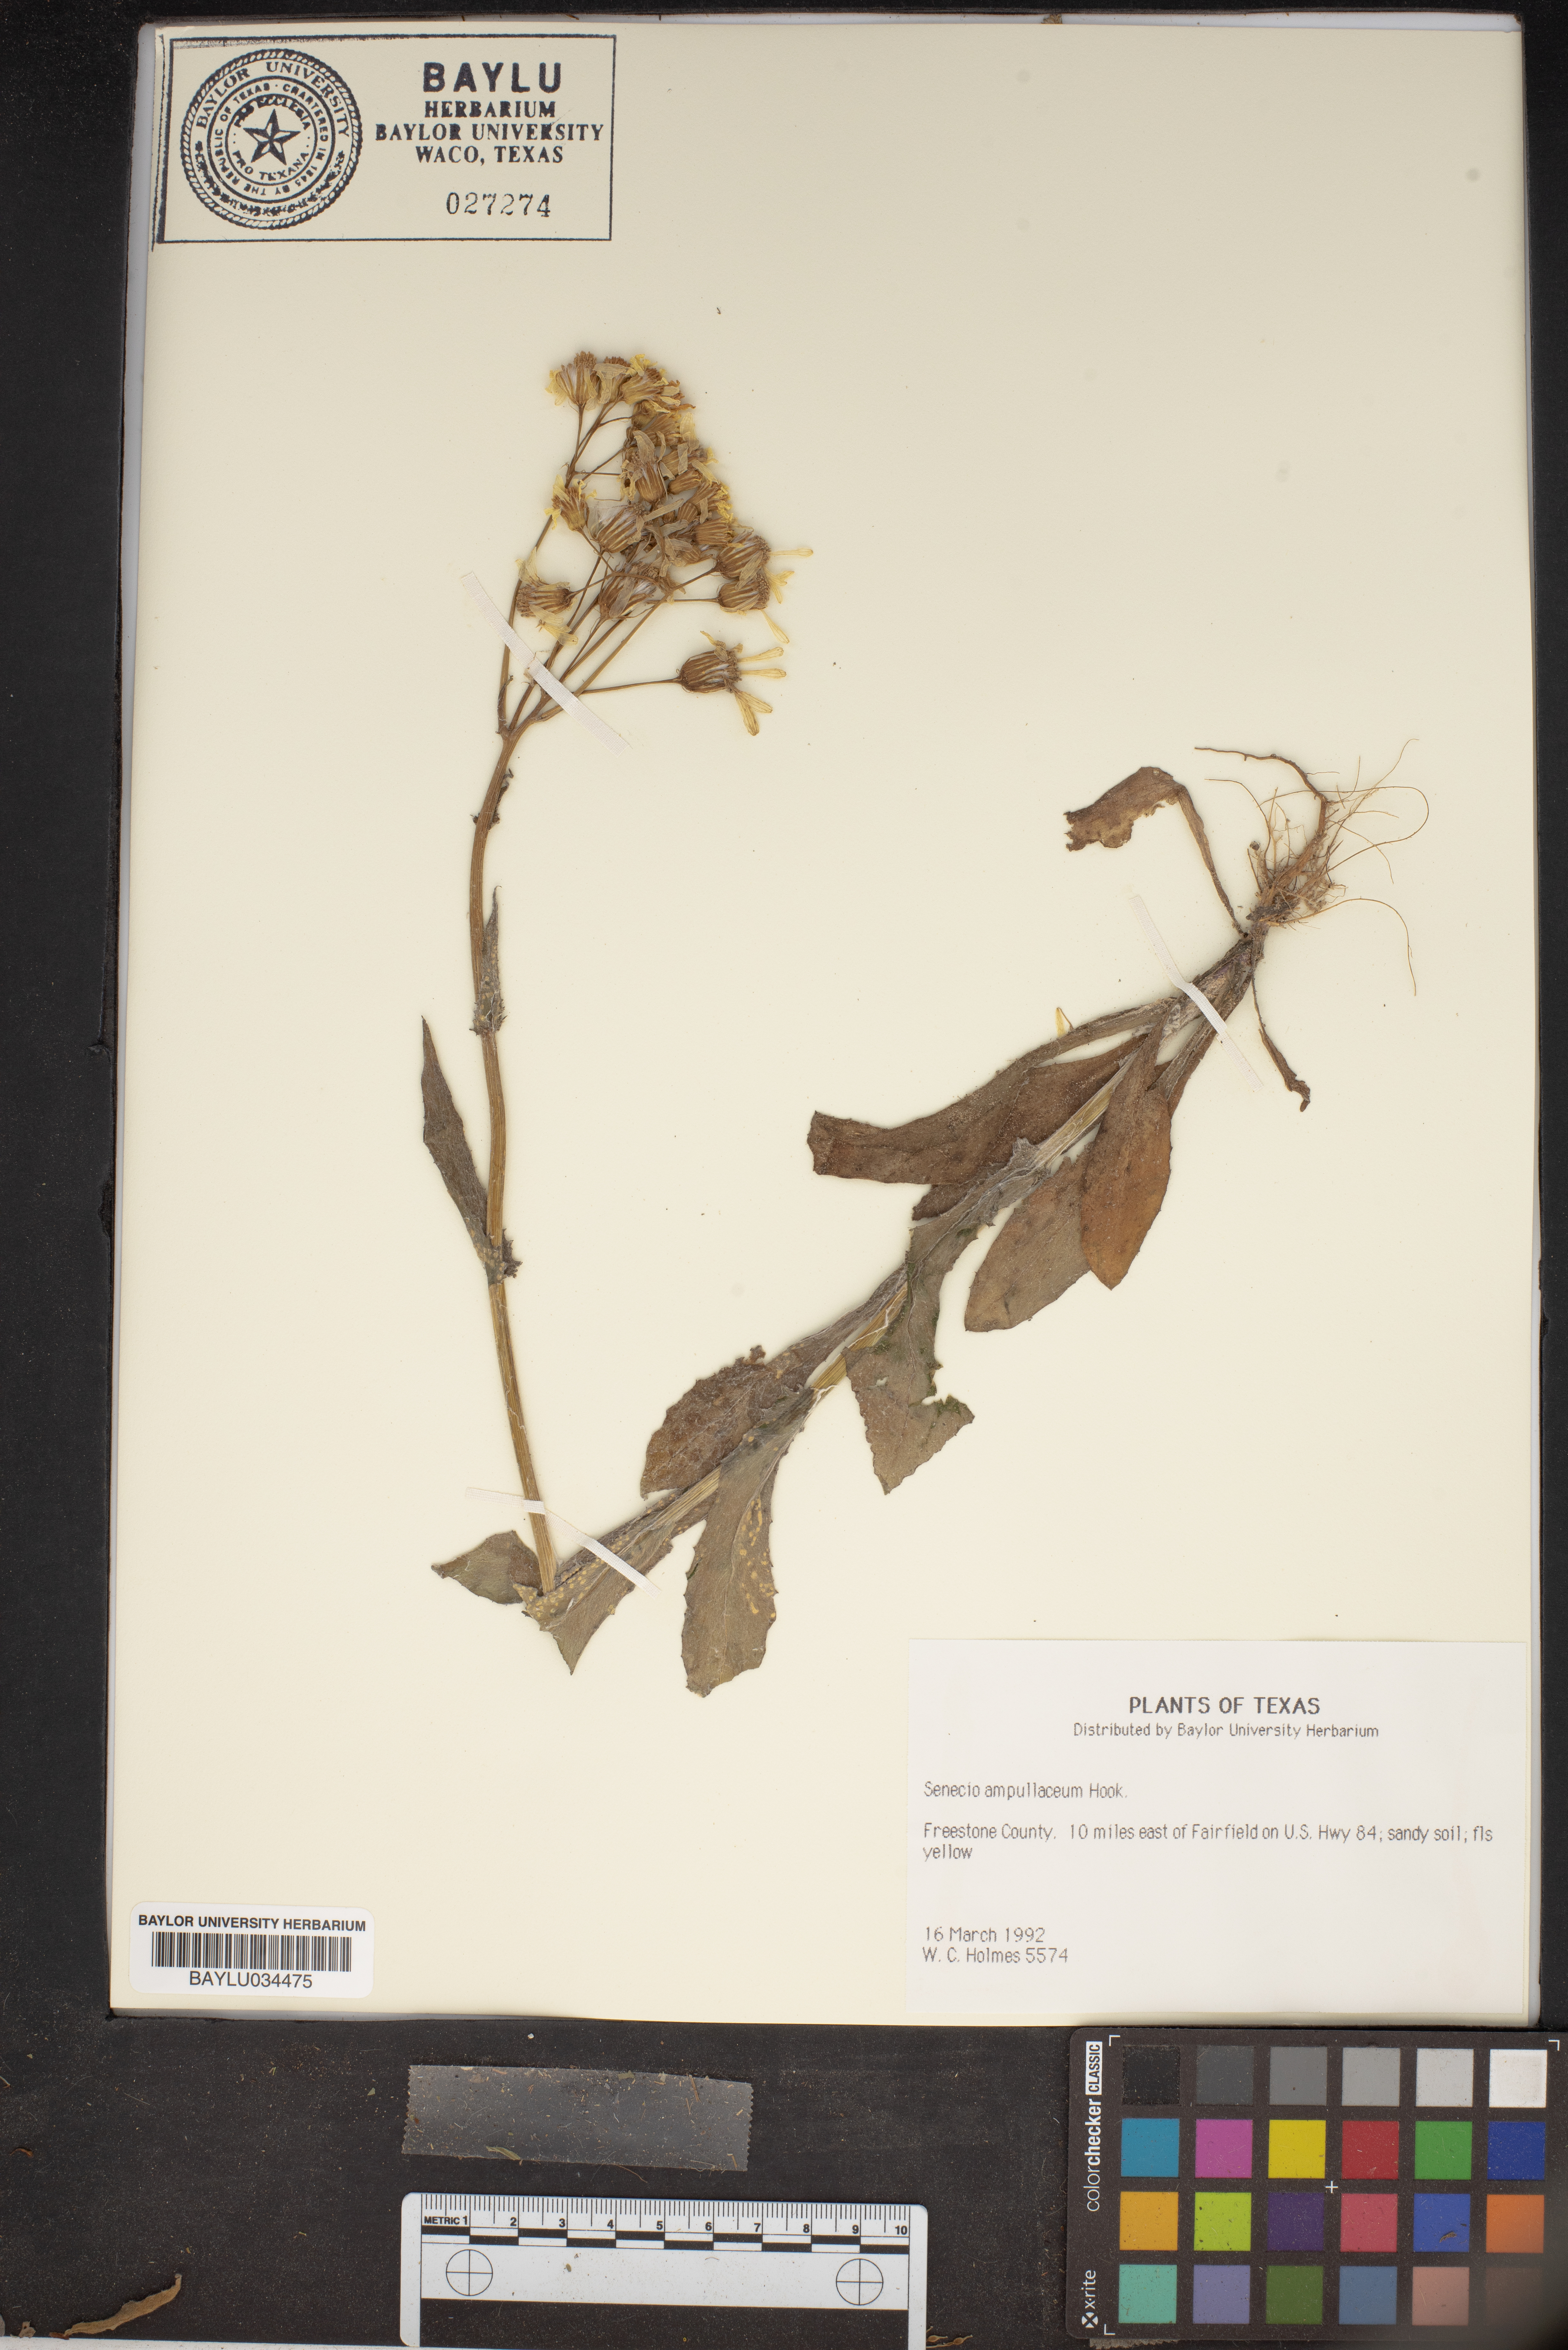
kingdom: Plantae
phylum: Tracheophyta
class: Magnoliopsida
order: Asterales
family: Asteraceae
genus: Senecio
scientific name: Senecio ampullaceus
